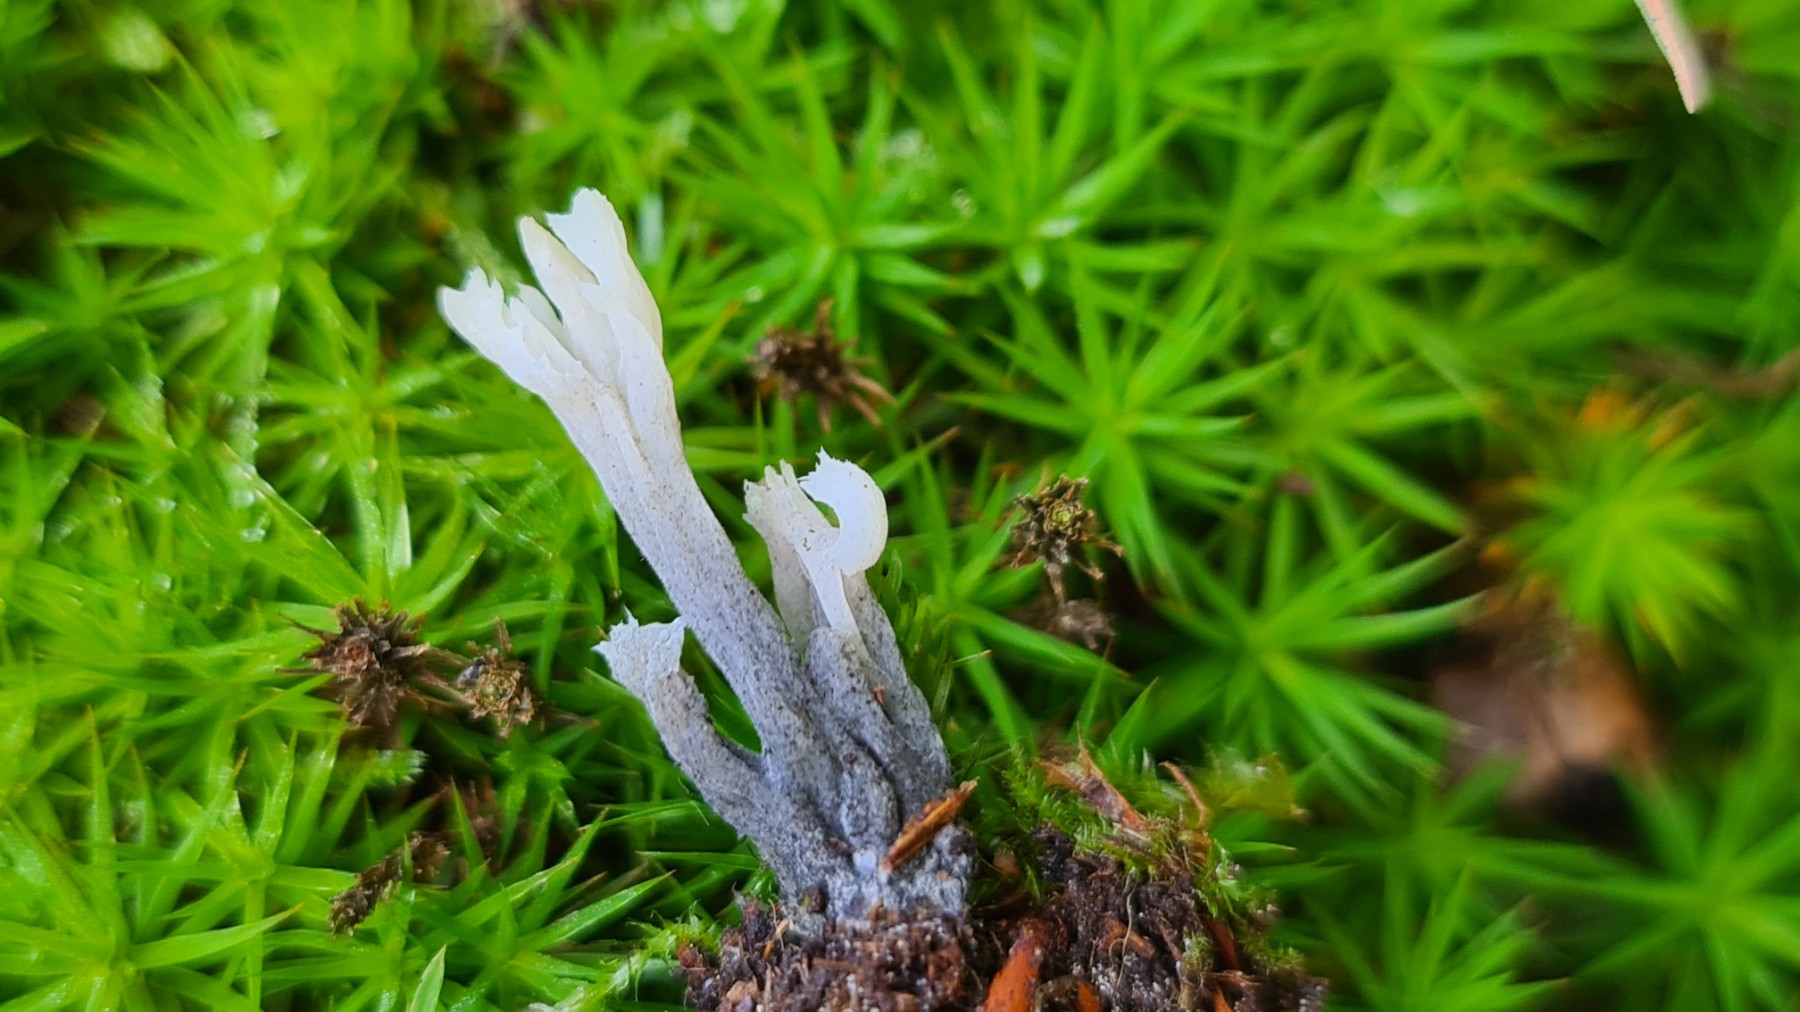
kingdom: Fungi
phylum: Basidiomycota
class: Agaricomycetes
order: Cantharellales
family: Hydnaceae
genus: Clavulina
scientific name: Clavulina
